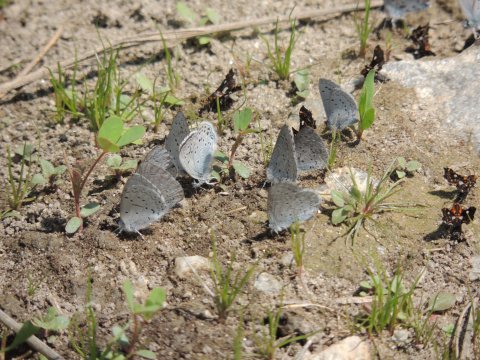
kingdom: Animalia
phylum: Arthropoda
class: Insecta
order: Lepidoptera
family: Lycaenidae
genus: Plebejus
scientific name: Plebejus saepiolus
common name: Greenish Blue
